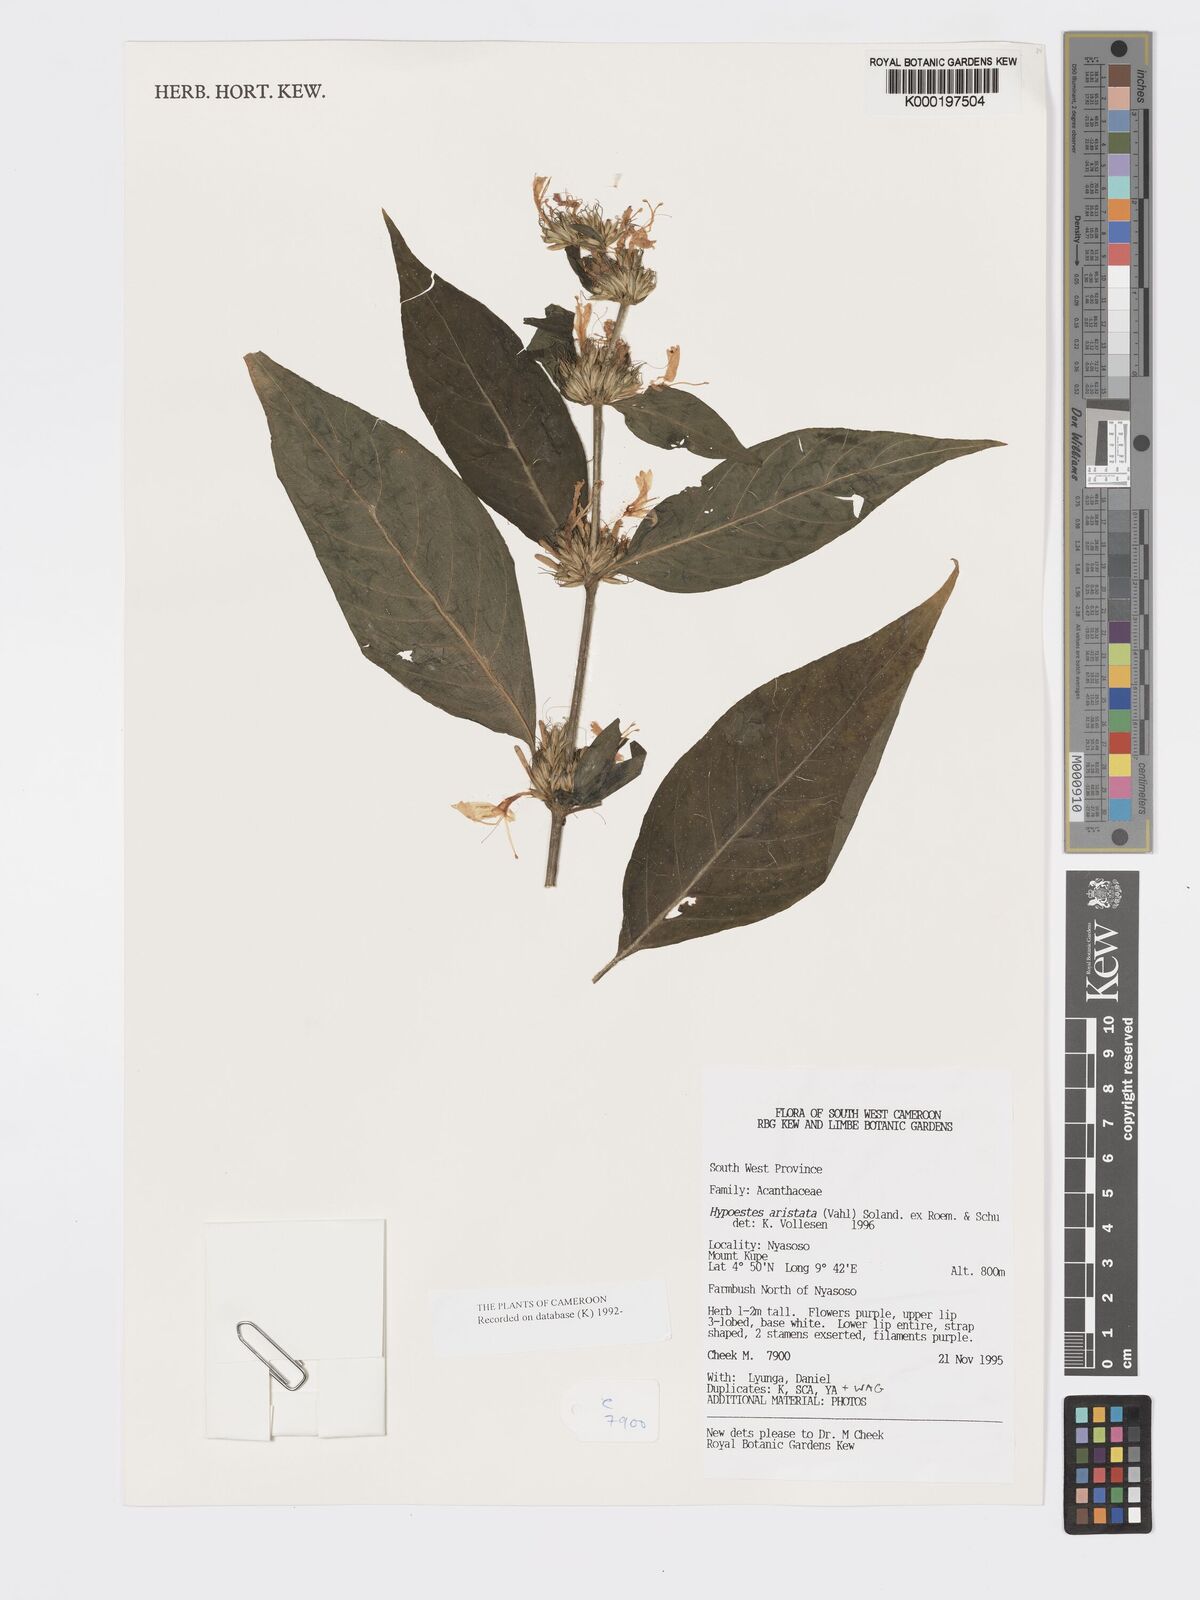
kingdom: Plantae
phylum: Tracheophyta
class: Magnoliopsida
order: Lamiales
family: Acanthaceae
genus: Hypoestes
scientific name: Hypoestes aristata
